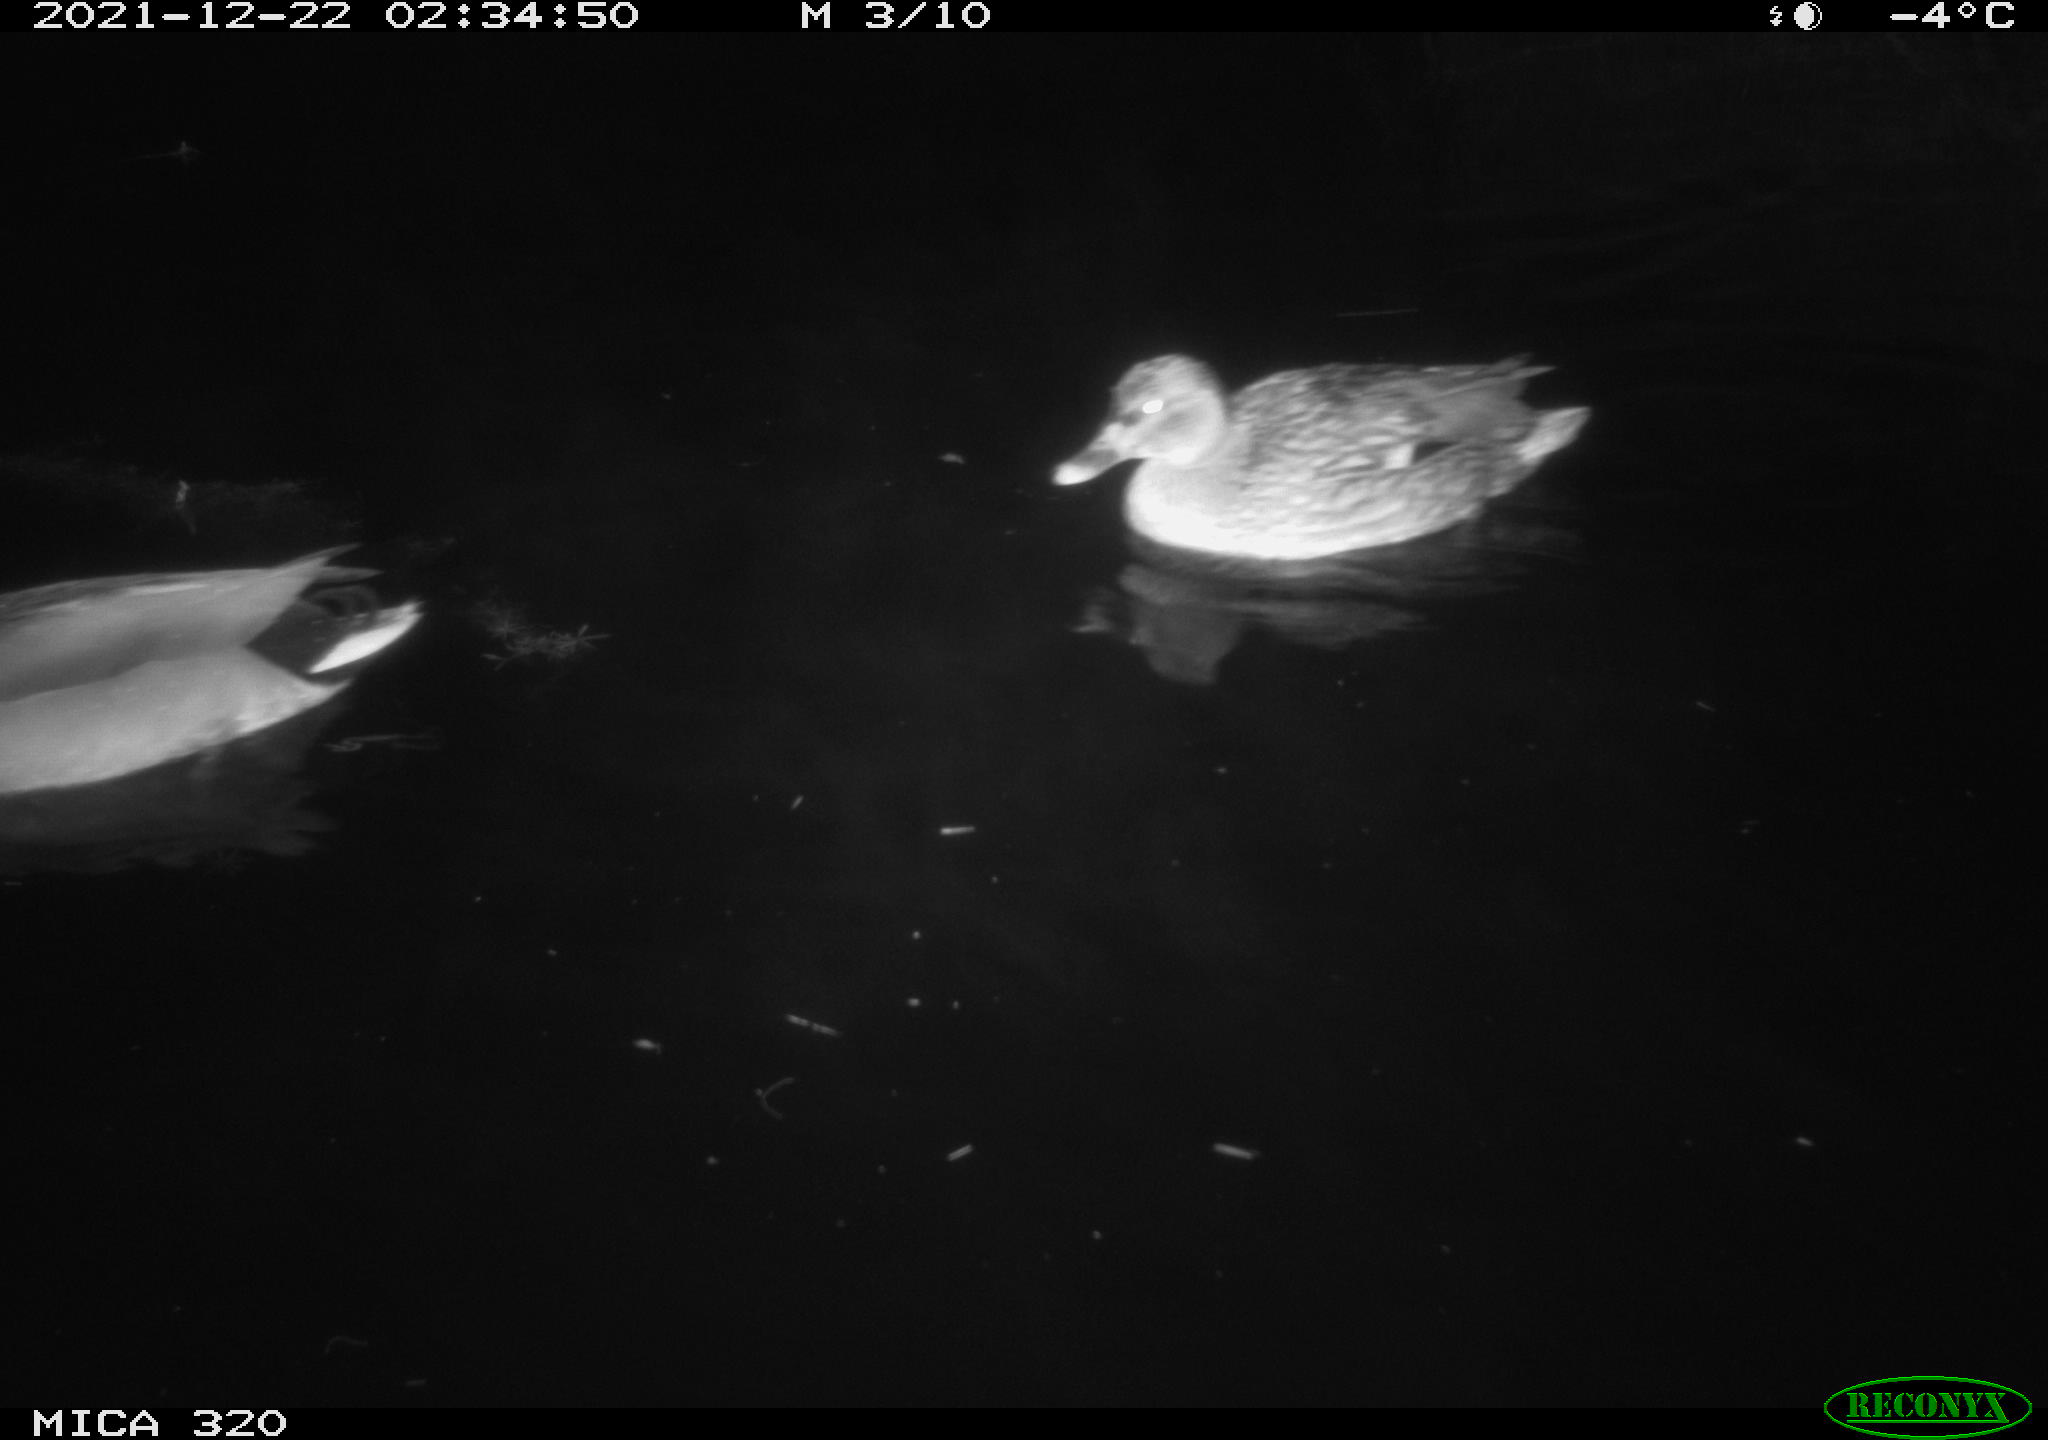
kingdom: Animalia
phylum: Chordata
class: Aves
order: Anseriformes
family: Anatidae
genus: Anas
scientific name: Anas platyrhynchos
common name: Mallard
